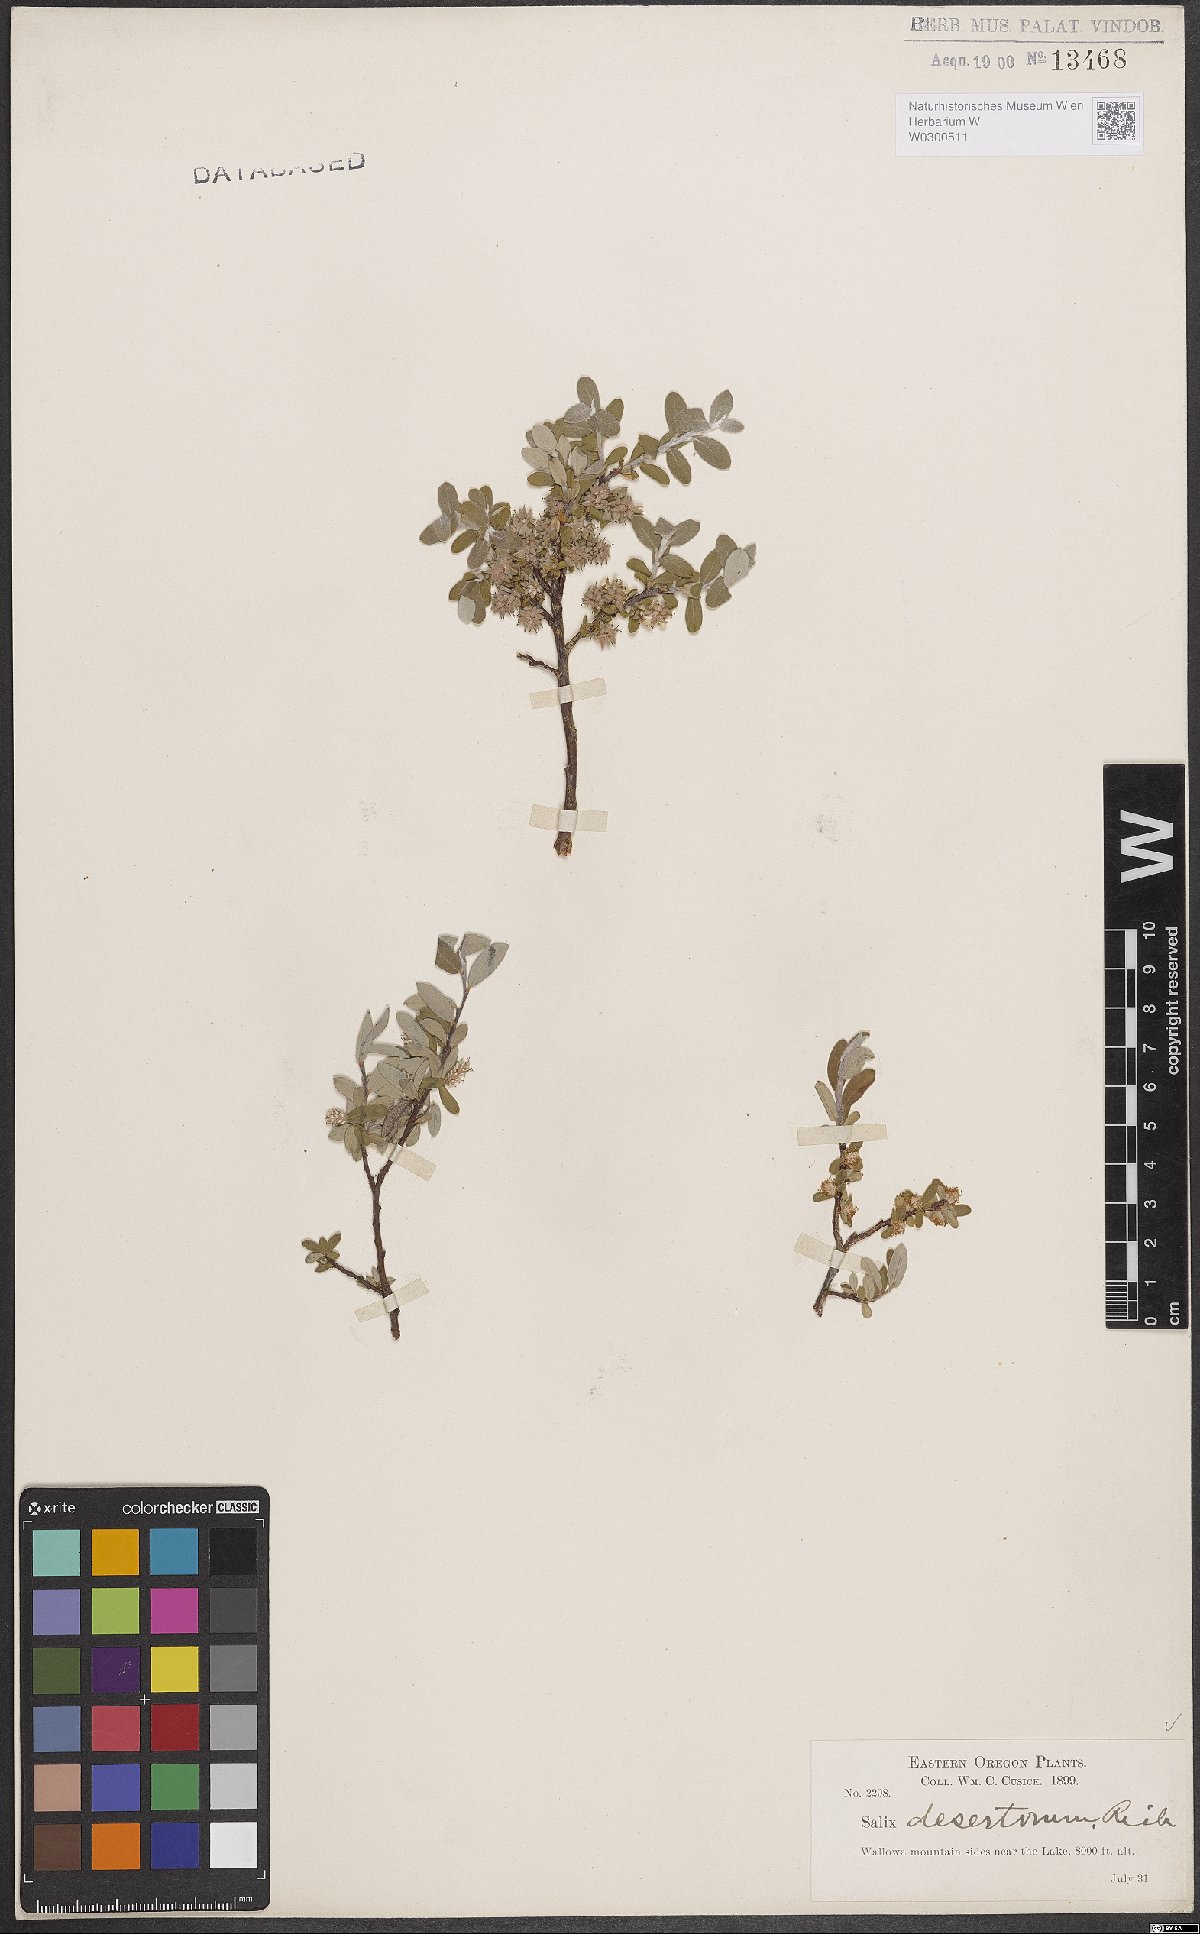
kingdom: Plantae
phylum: Tracheophyta
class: Magnoliopsida
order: Malpighiales
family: Salicaceae
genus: Salix
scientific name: Salix glauca
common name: Glaucous willow
